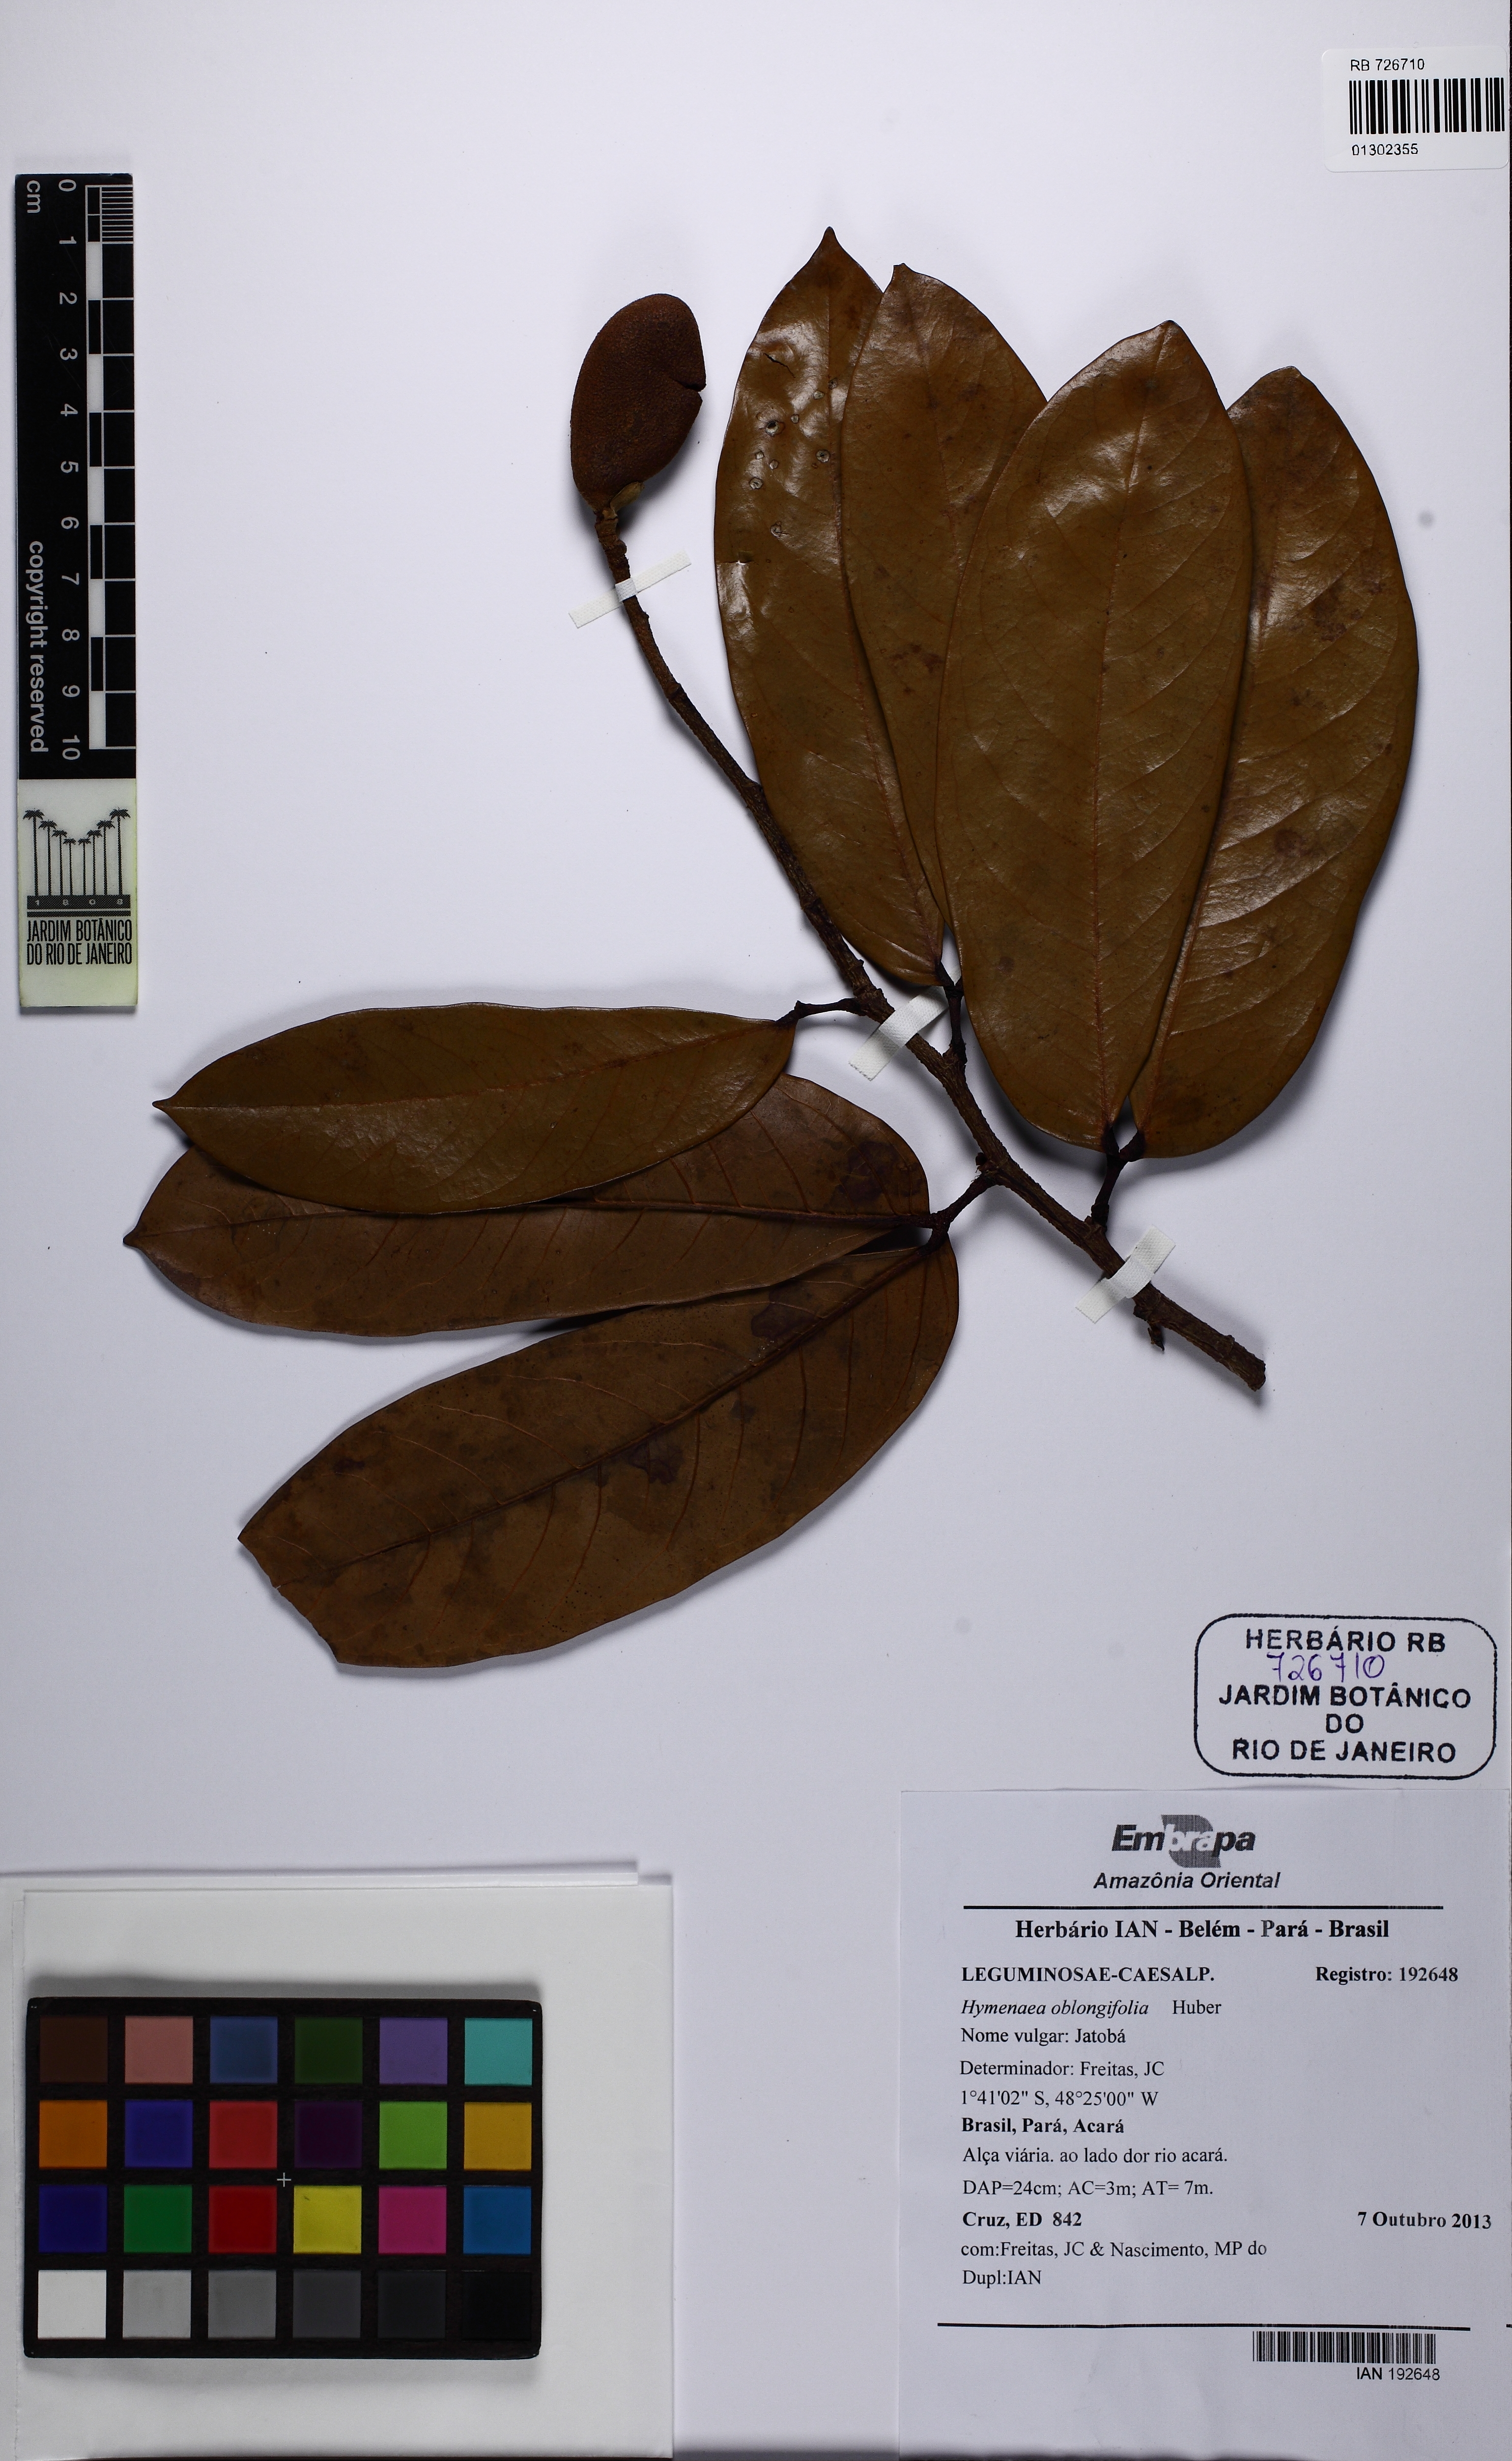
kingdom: Plantae
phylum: Tracheophyta
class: Magnoliopsida
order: Fabales
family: Fabaceae
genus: Hymenaea
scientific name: Hymenaea oblongifolia
